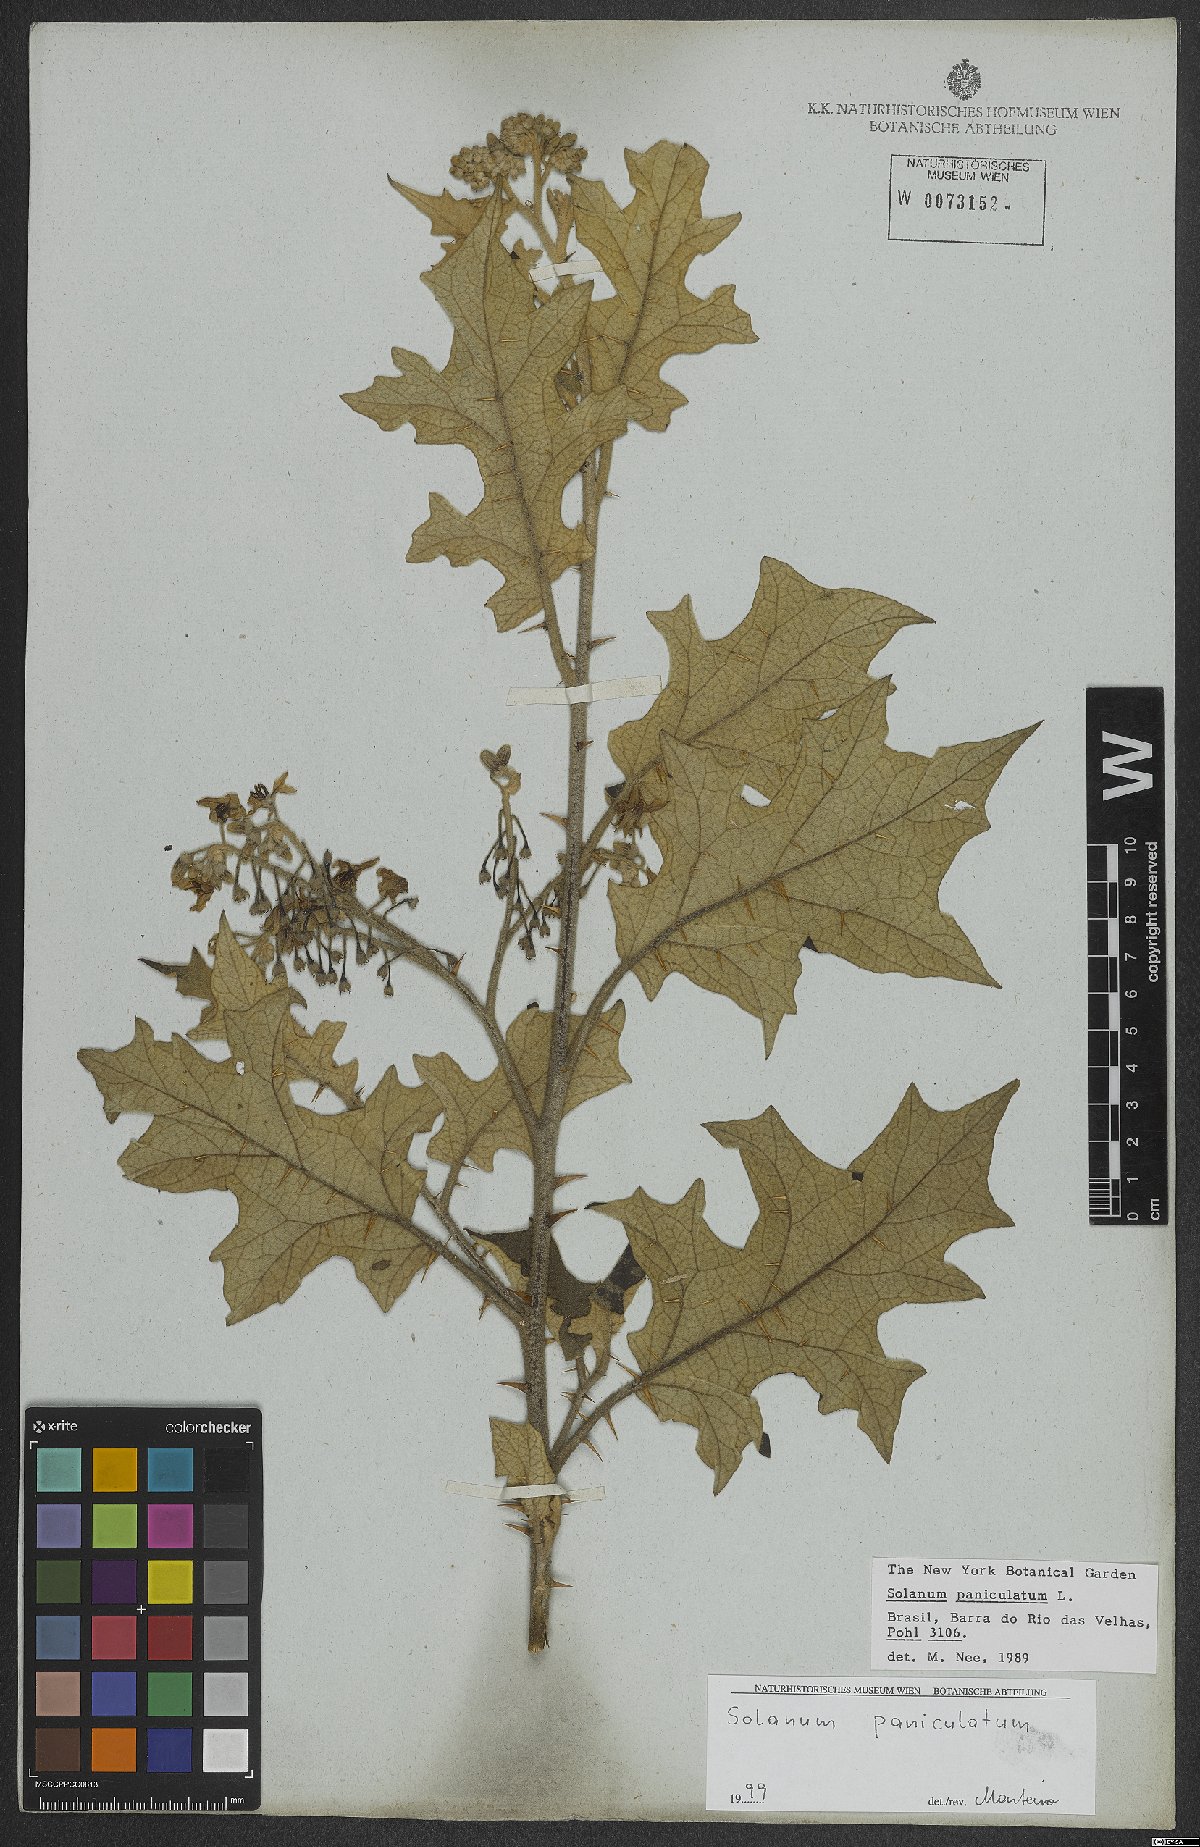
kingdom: Plantae
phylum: Tracheophyta
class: Magnoliopsida
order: Solanales
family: Solanaceae
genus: Solanum
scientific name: Solanum paniculatum
